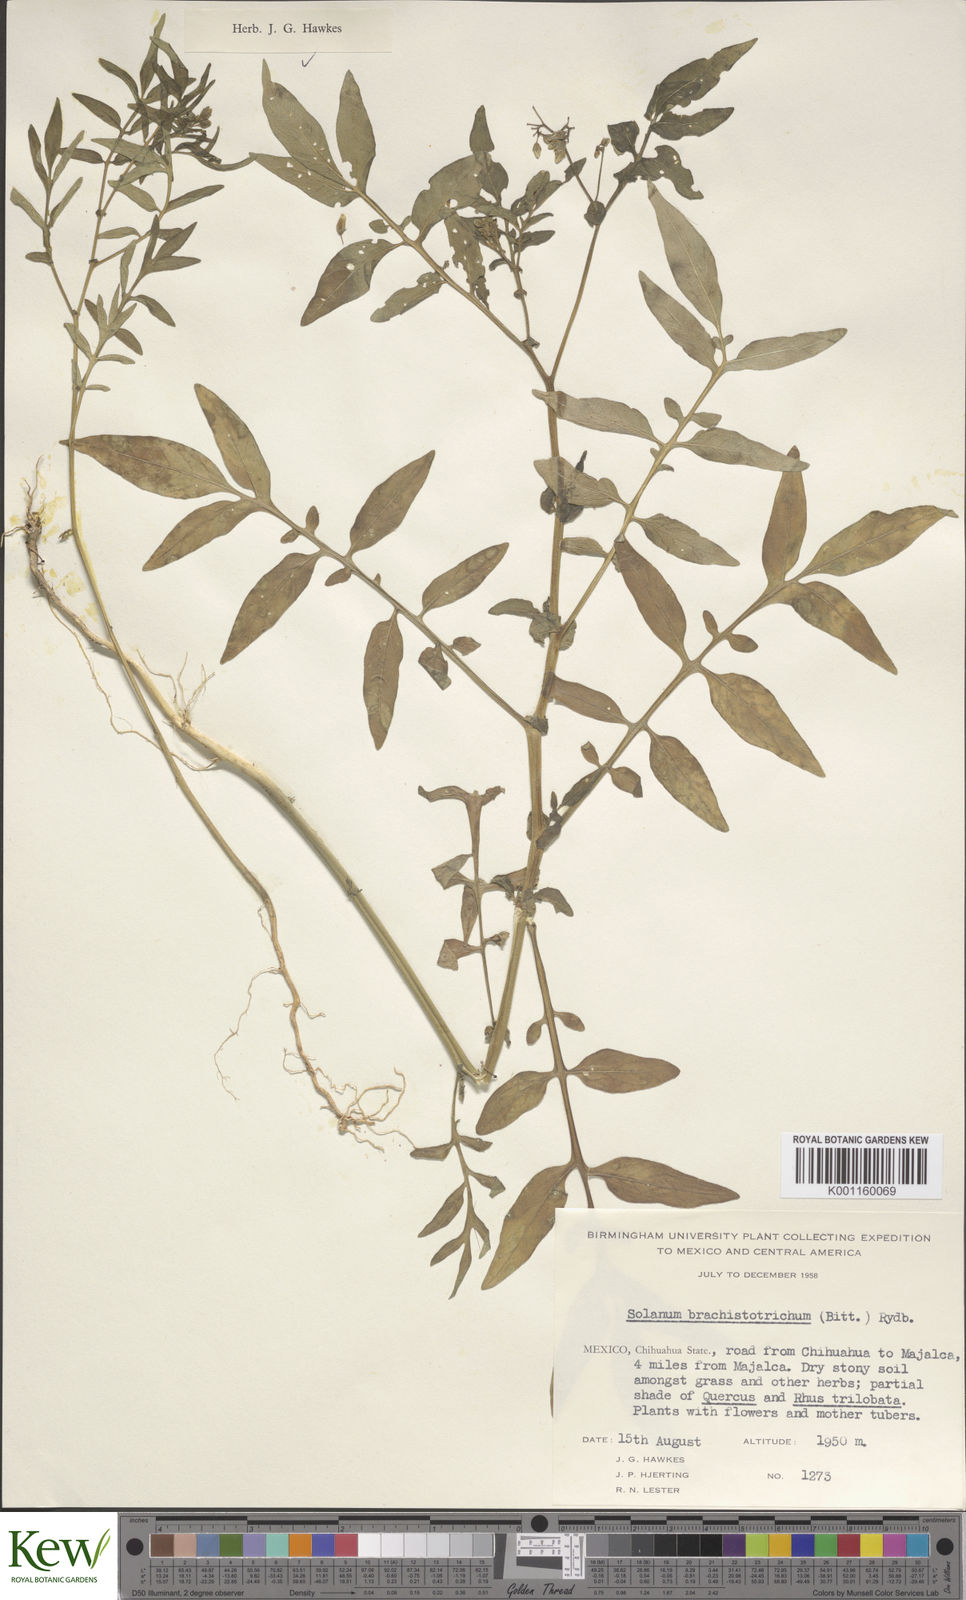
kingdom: Plantae
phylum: Tracheophyta
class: Magnoliopsida
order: Solanales
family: Solanaceae
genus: Solanum
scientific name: Solanum
